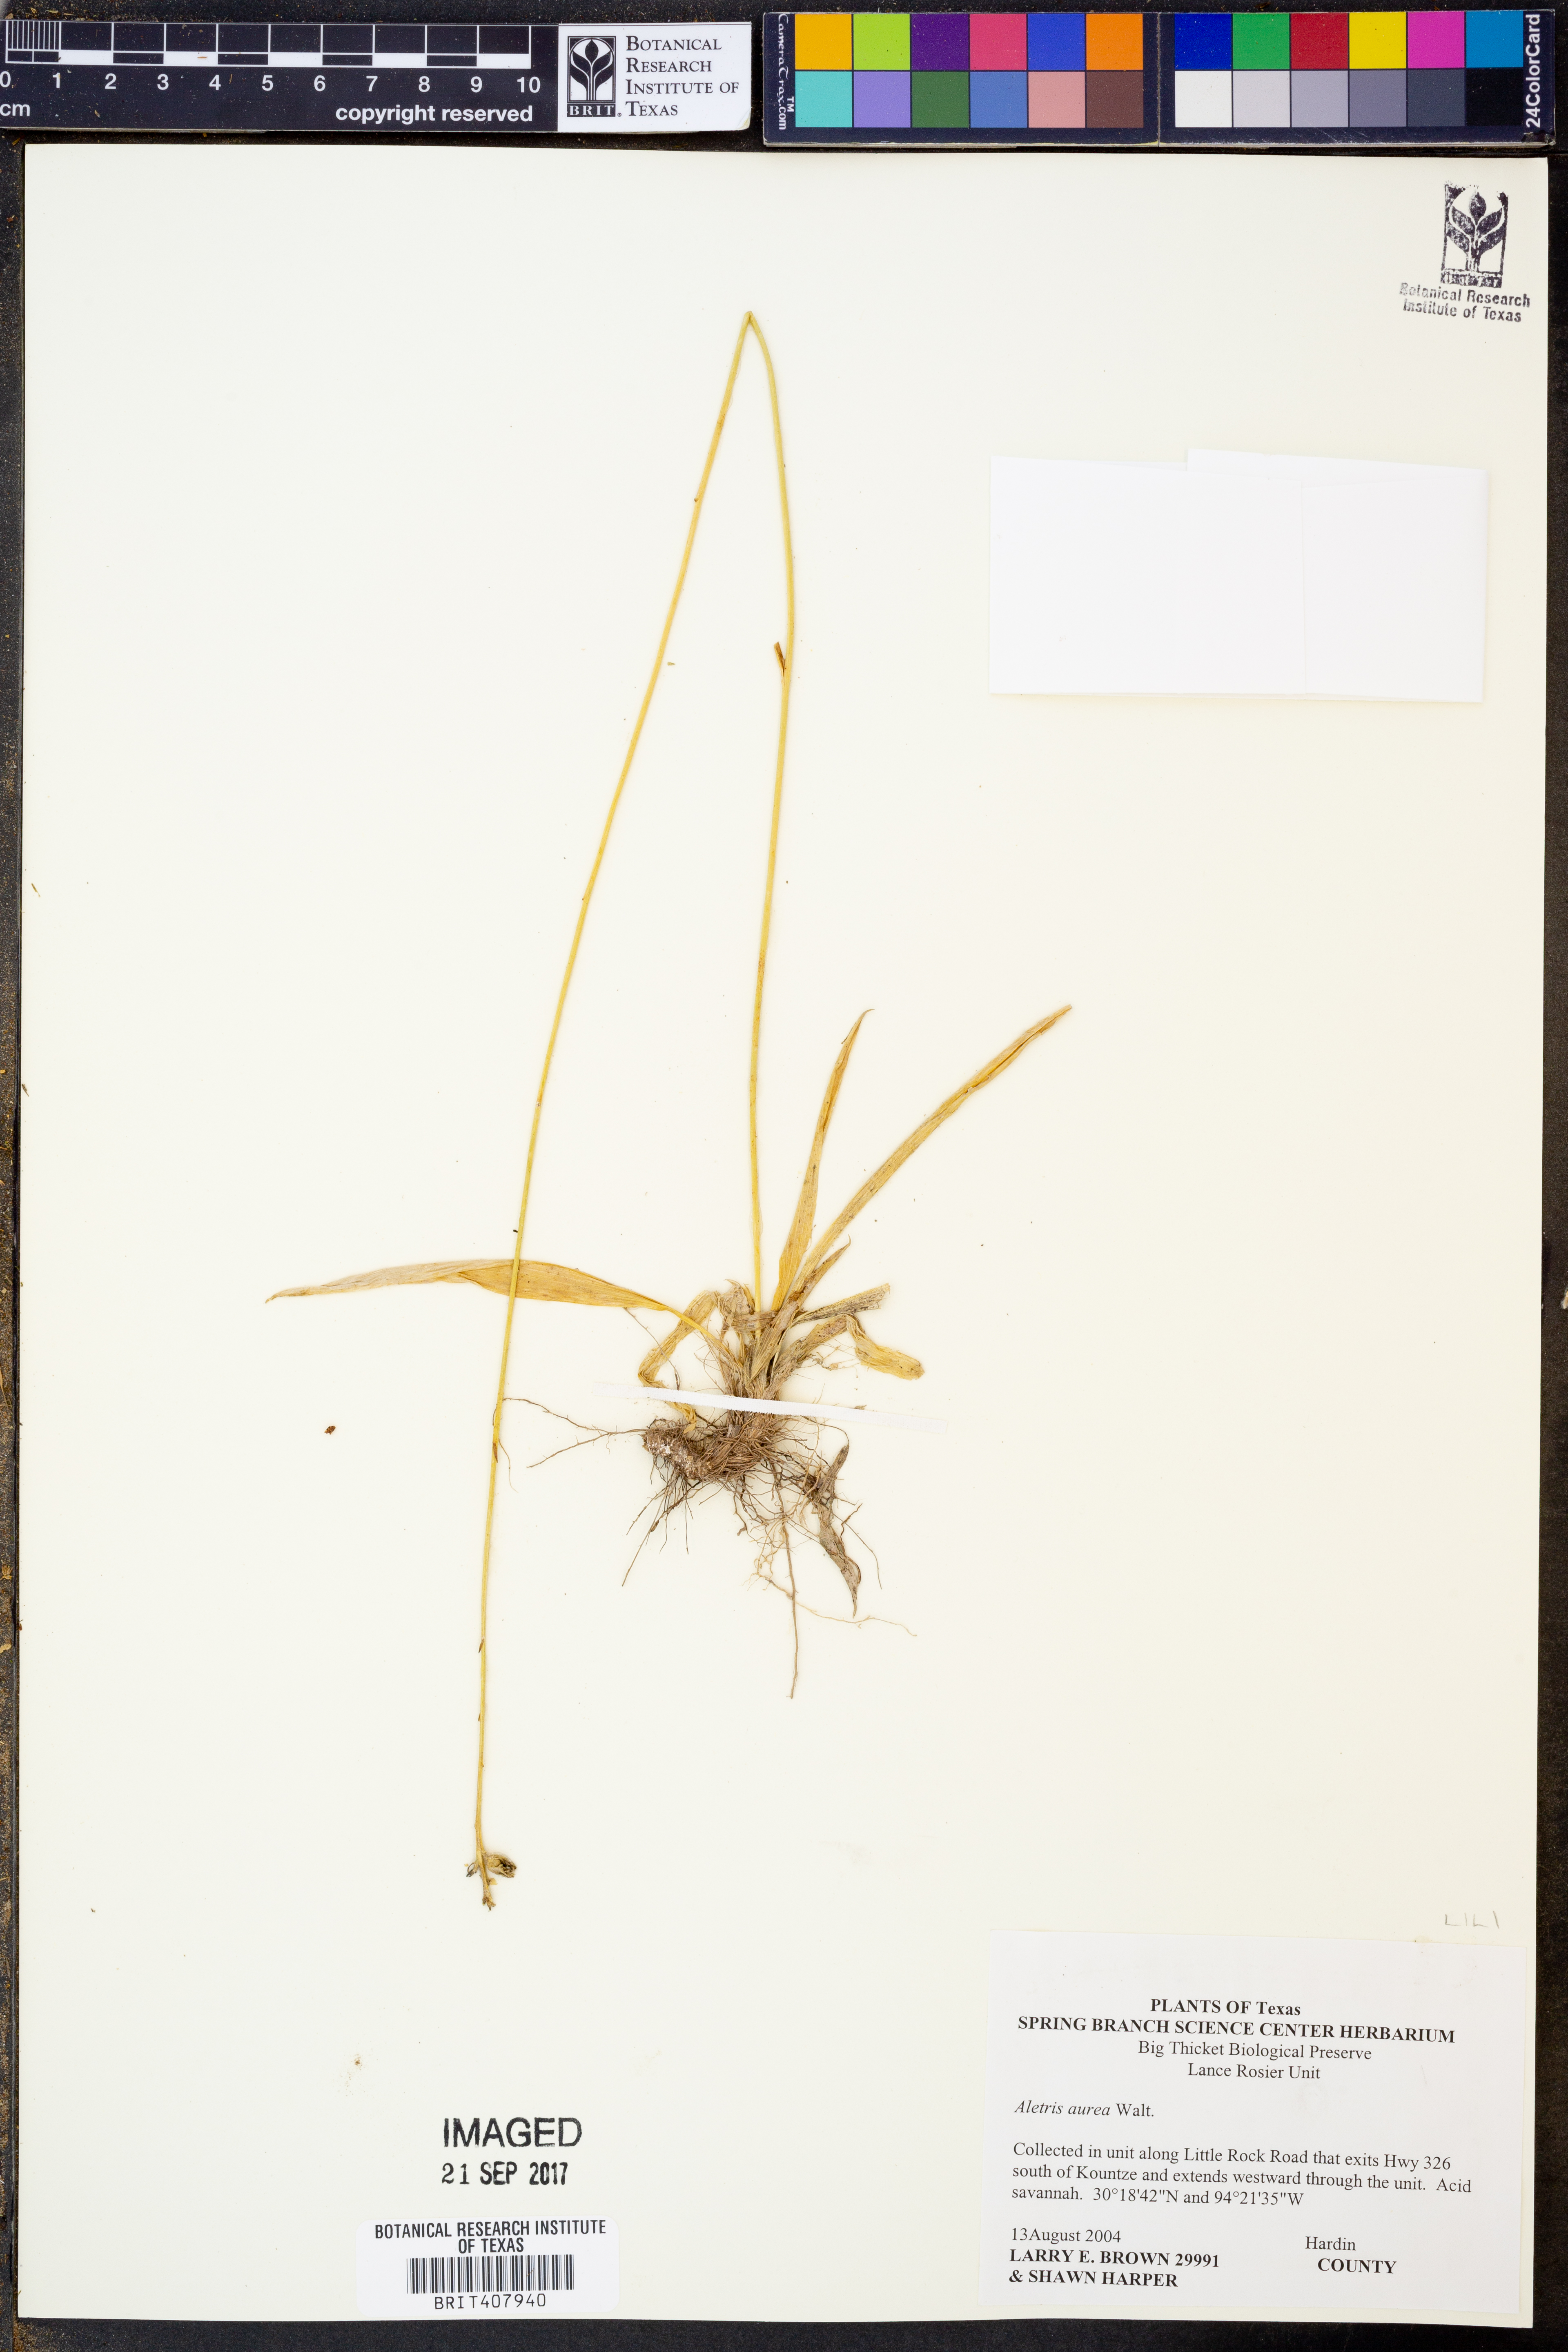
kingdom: Plantae
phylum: Tracheophyta
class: Liliopsida
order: Dioscoreales
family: Nartheciaceae
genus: Aletris
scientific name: Aletris aurea
